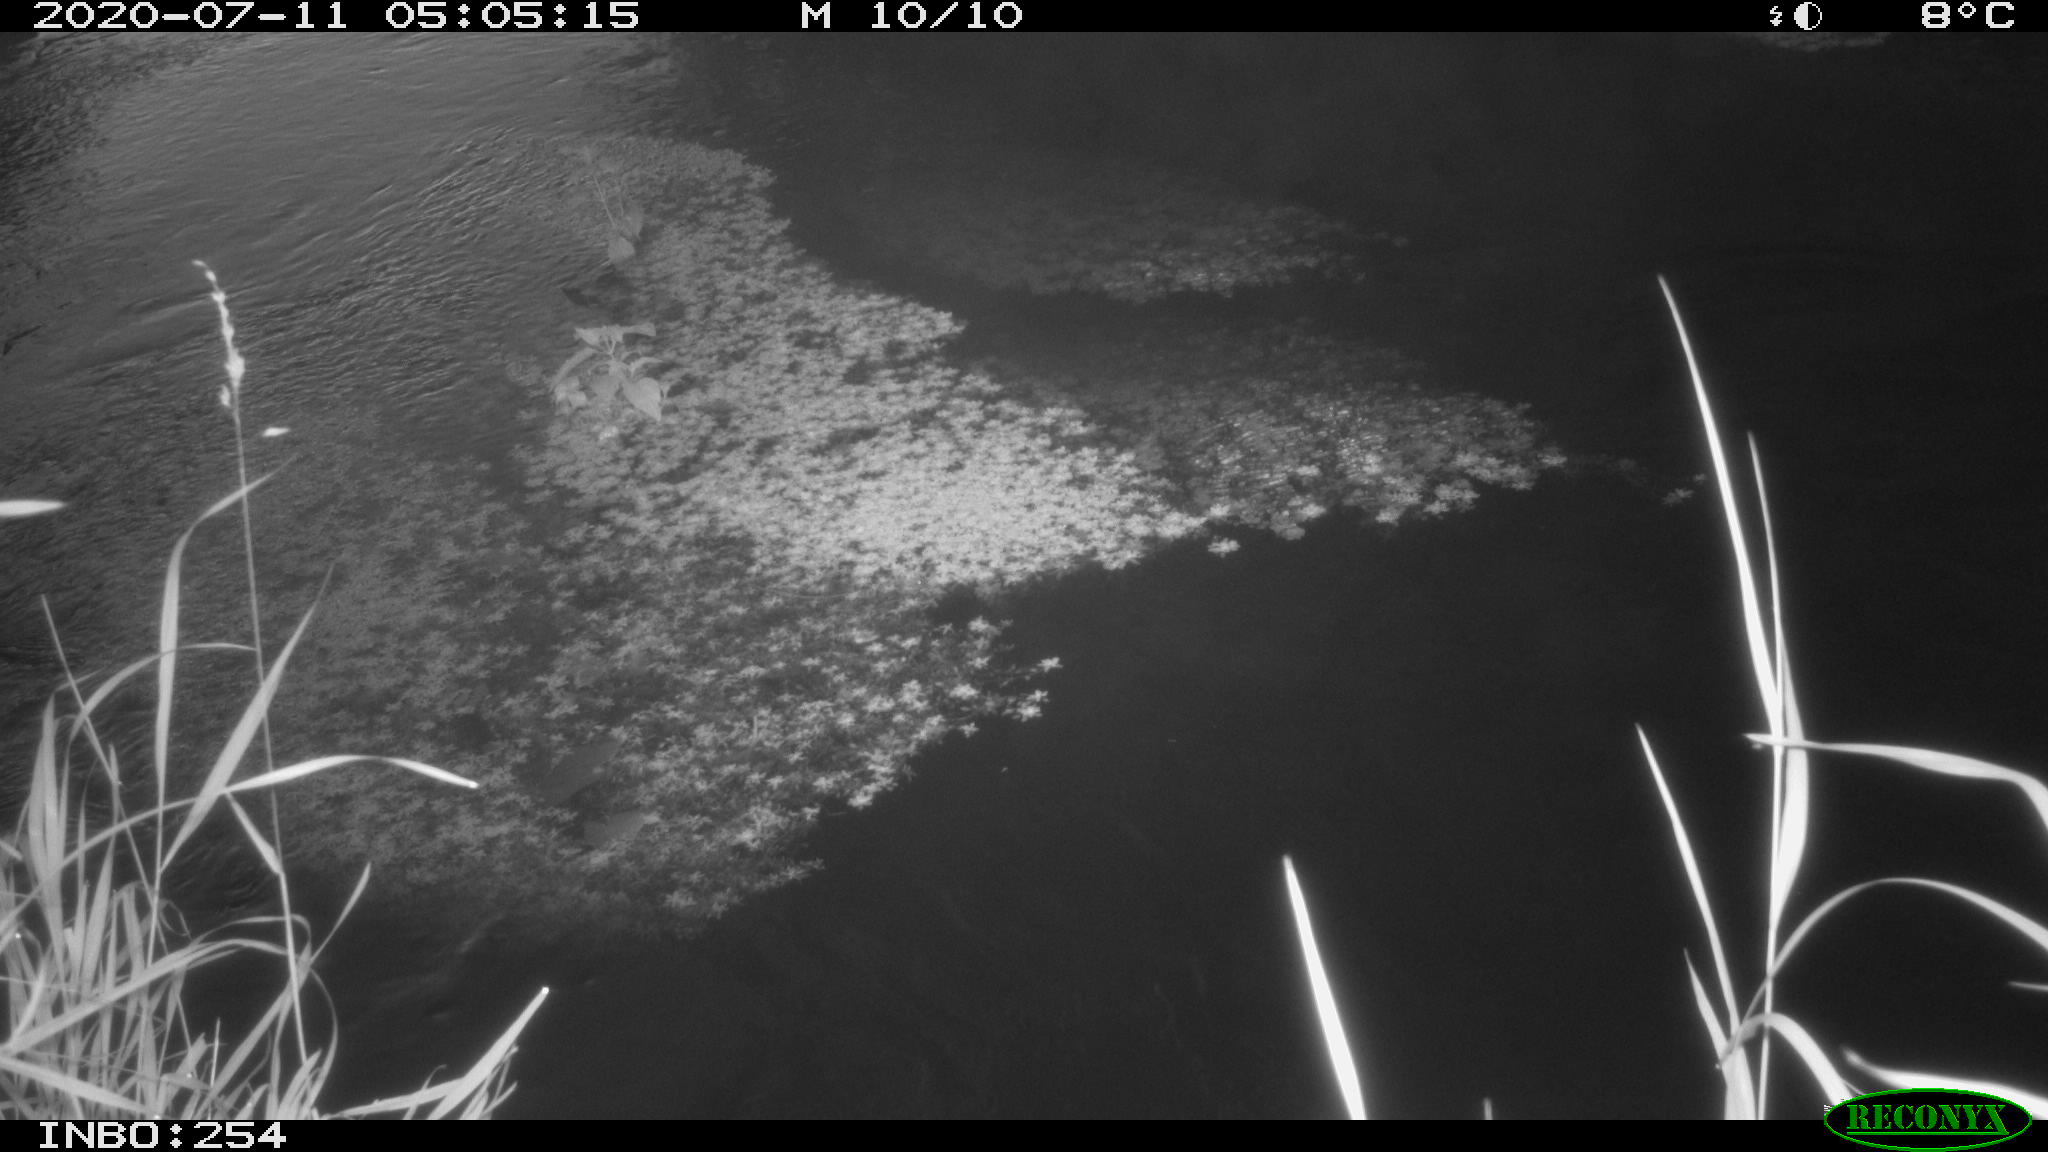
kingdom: Animalia
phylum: Chordata
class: Aves
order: Anseriformes
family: Anatidae
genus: Anas
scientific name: Anas platyrhynchos
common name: Mallard
